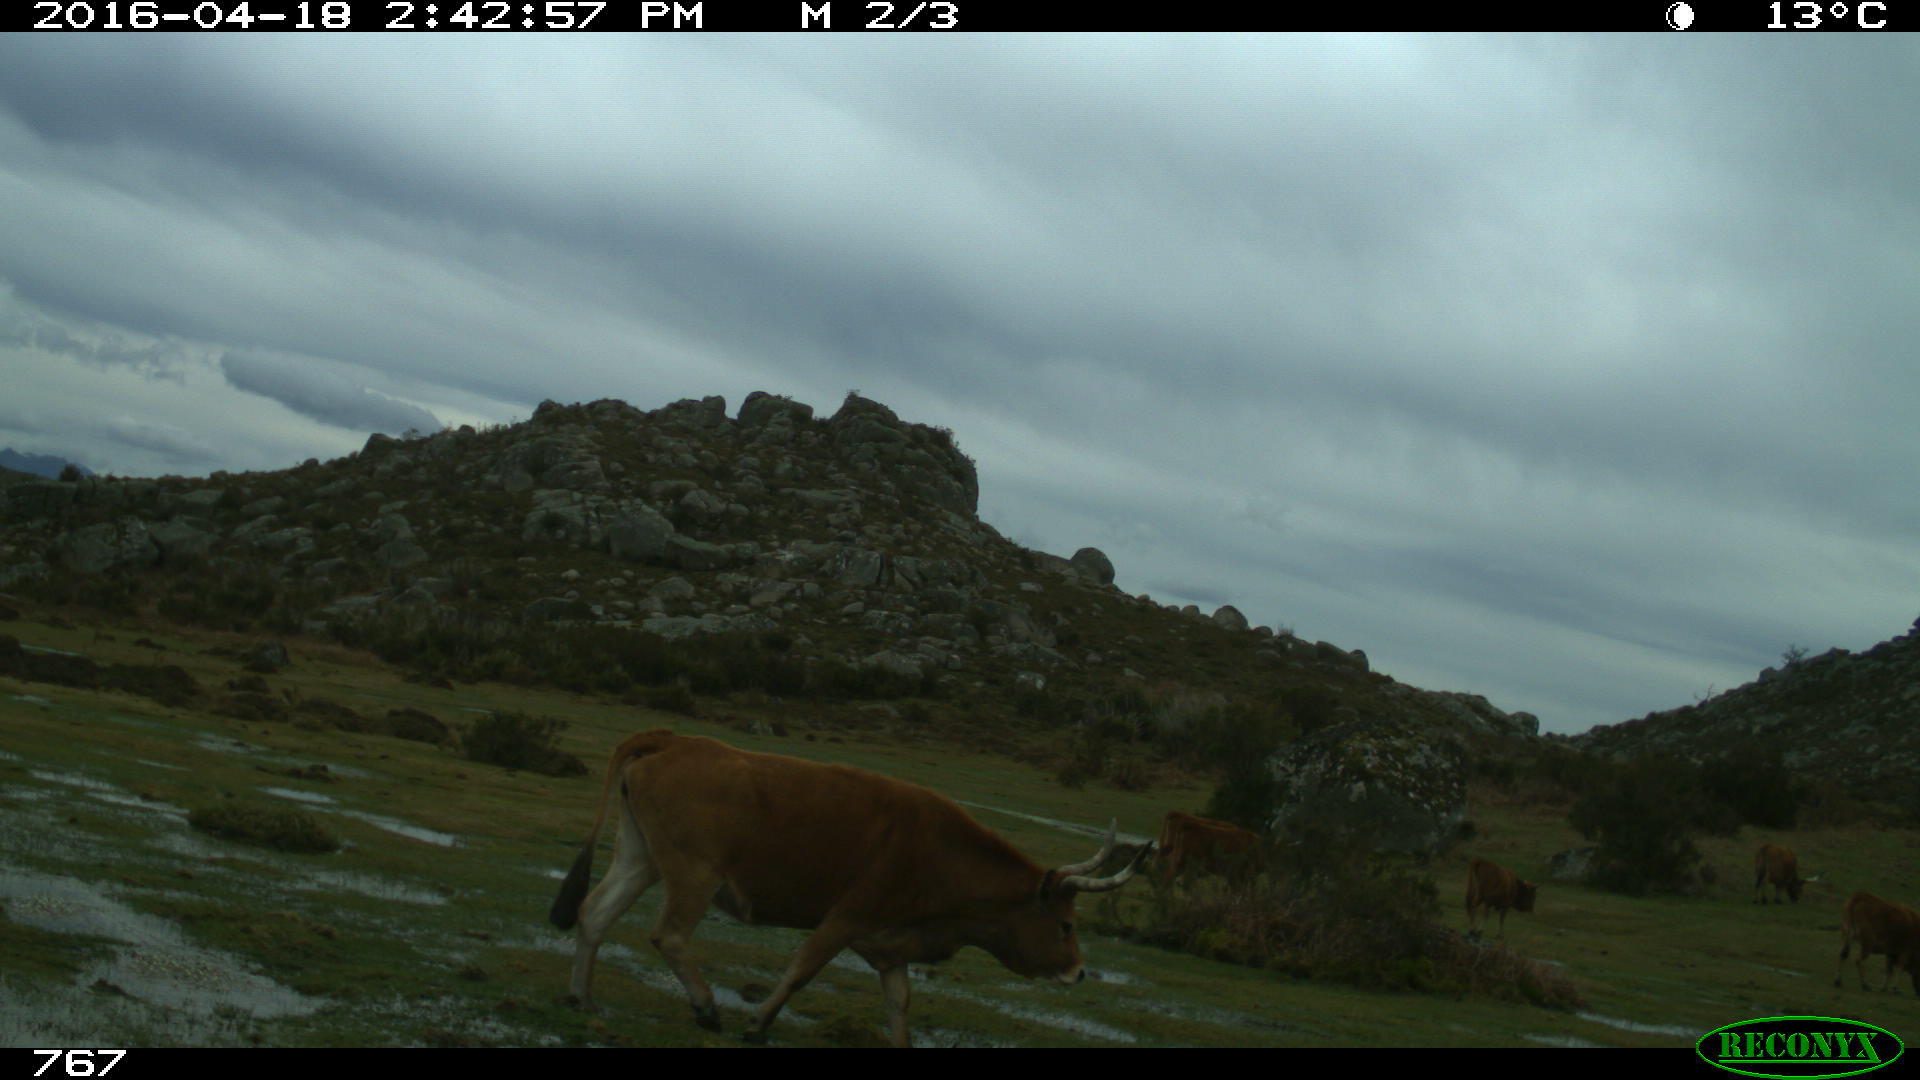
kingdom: Animalia
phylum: Chordata
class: Mammalia
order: Artiodactyla
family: Bovidae
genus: Bos
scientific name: Bos taurus
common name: Domesticated cattle
